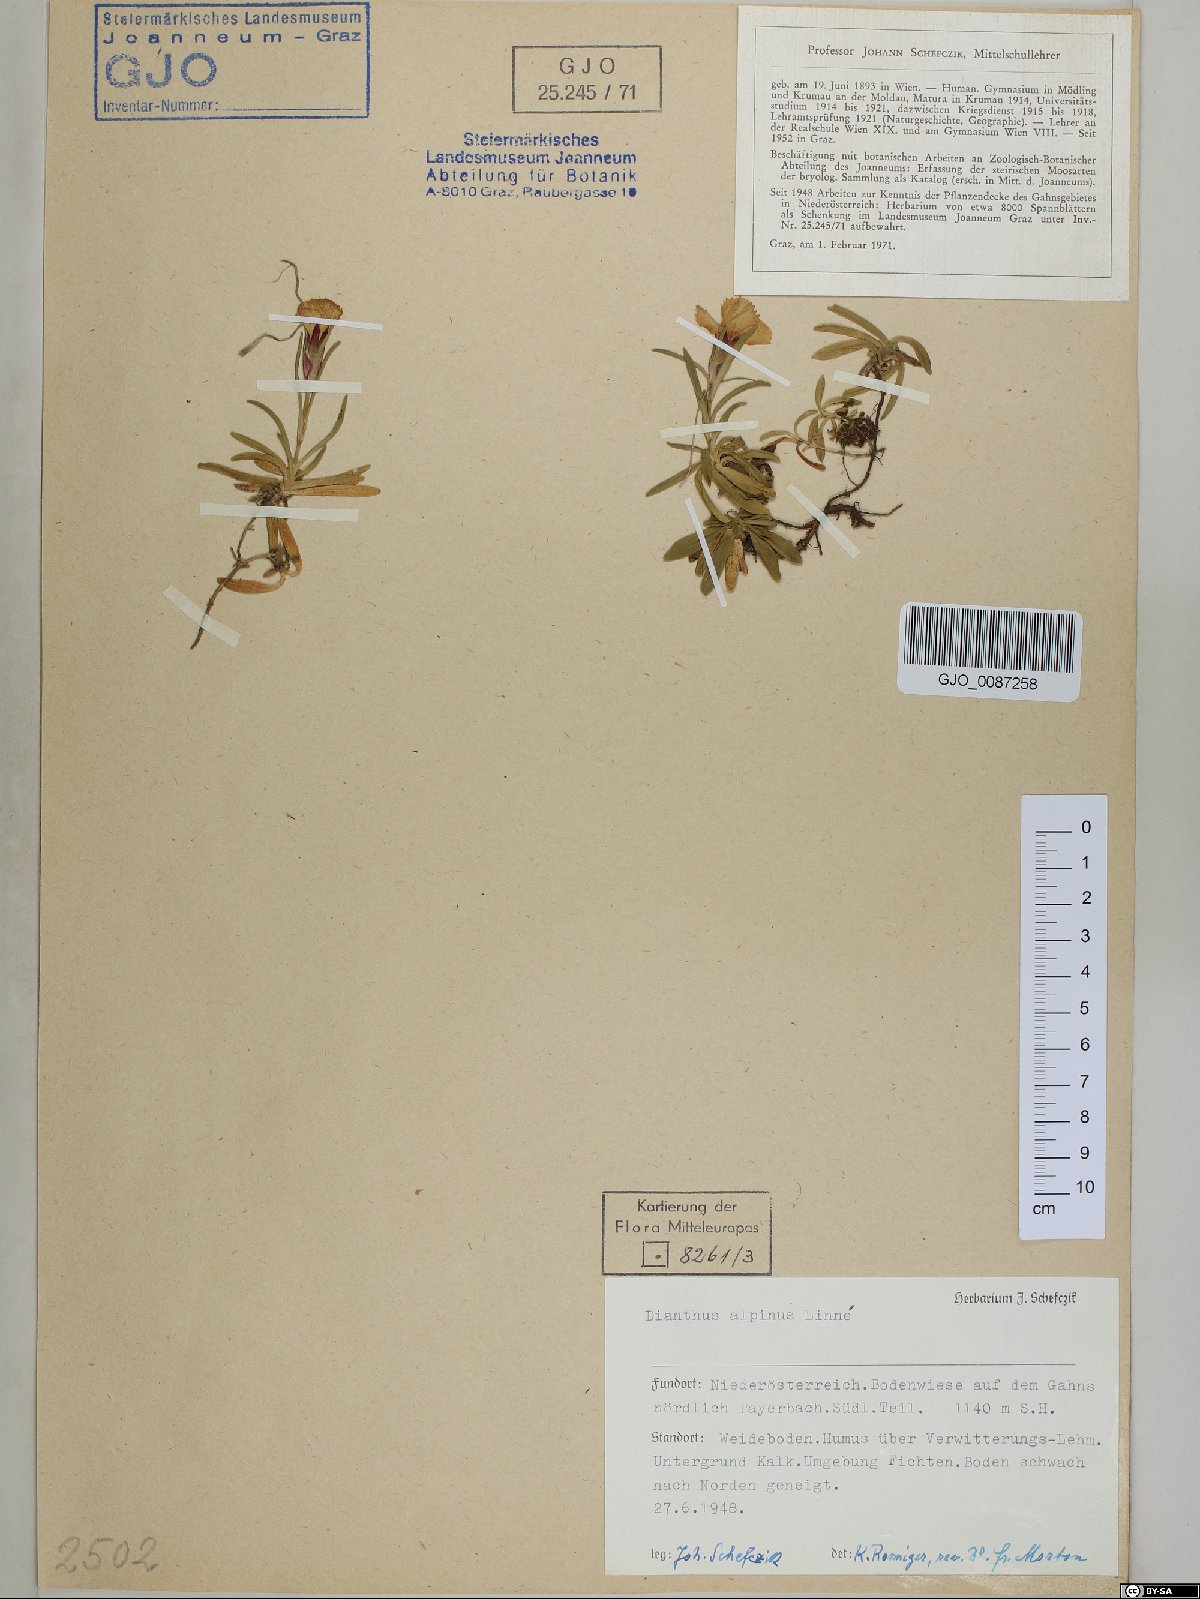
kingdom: Plantae
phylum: Tracheophyta
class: Magnoliopsida
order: Caryophyllales
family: Caryophyllaceae
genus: Dianthus
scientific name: Dianthus alpinus
